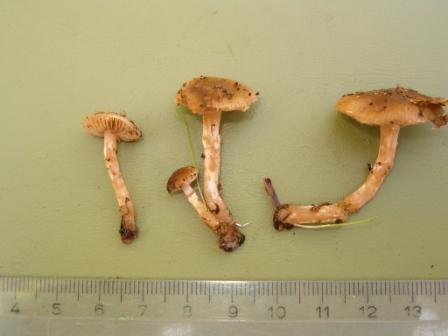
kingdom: Fungi
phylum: Basidiomycota
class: Agaricomycetes
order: Agaricales
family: Strophariaceae
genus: Meottomyces
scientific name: Meottomyces dissimulans
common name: smudsigbrun vinterskælhat
